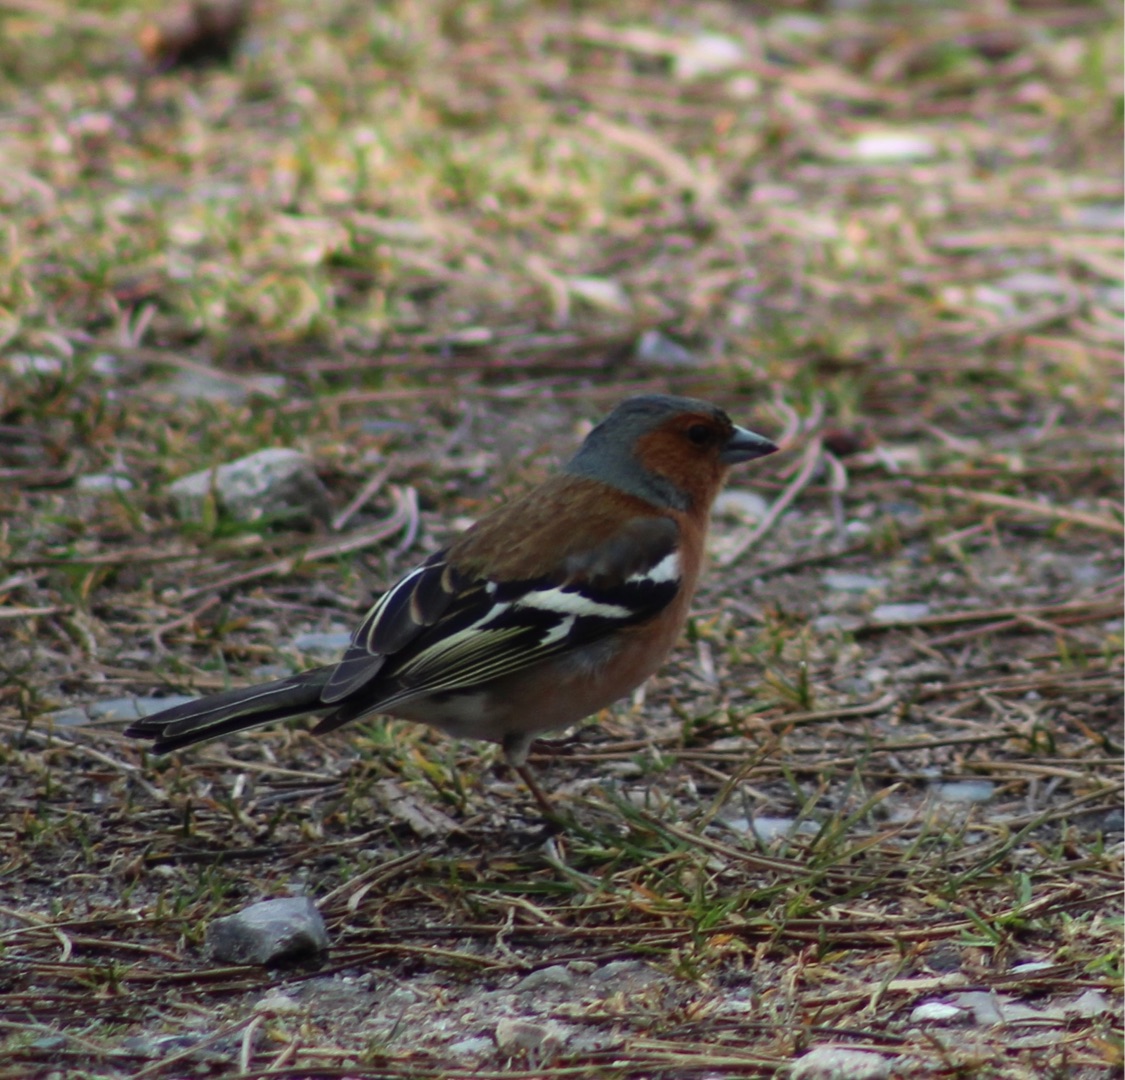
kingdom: Animalia
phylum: Chordata
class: Aves
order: Passeriformes
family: Fringillidae
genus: Fringilla
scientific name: Fringilla coelebs
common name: Bogfinke
